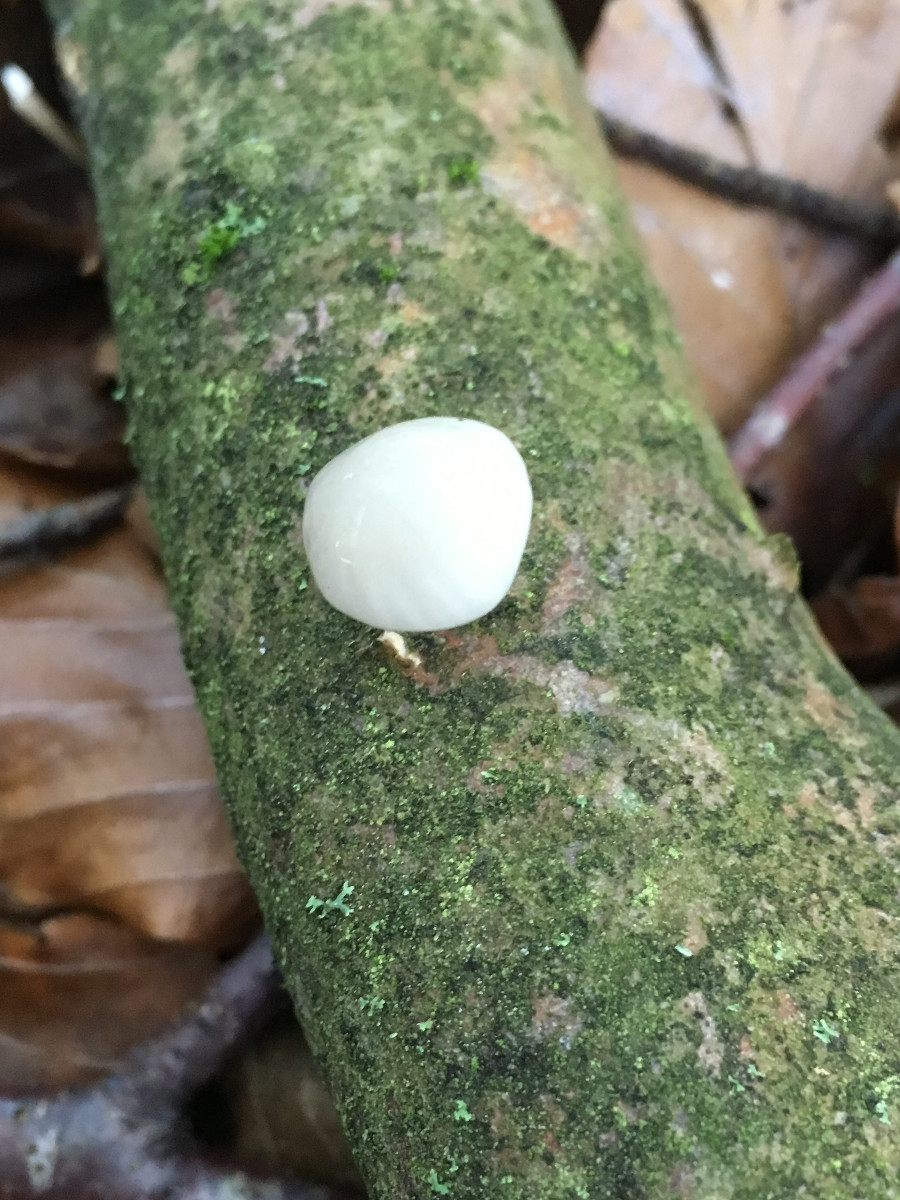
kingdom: Fungi
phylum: Basidiomycota
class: Agaricomycetes
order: Agaricales
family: Physalacriaceae
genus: Mucidula
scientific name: Mucidula mucida
